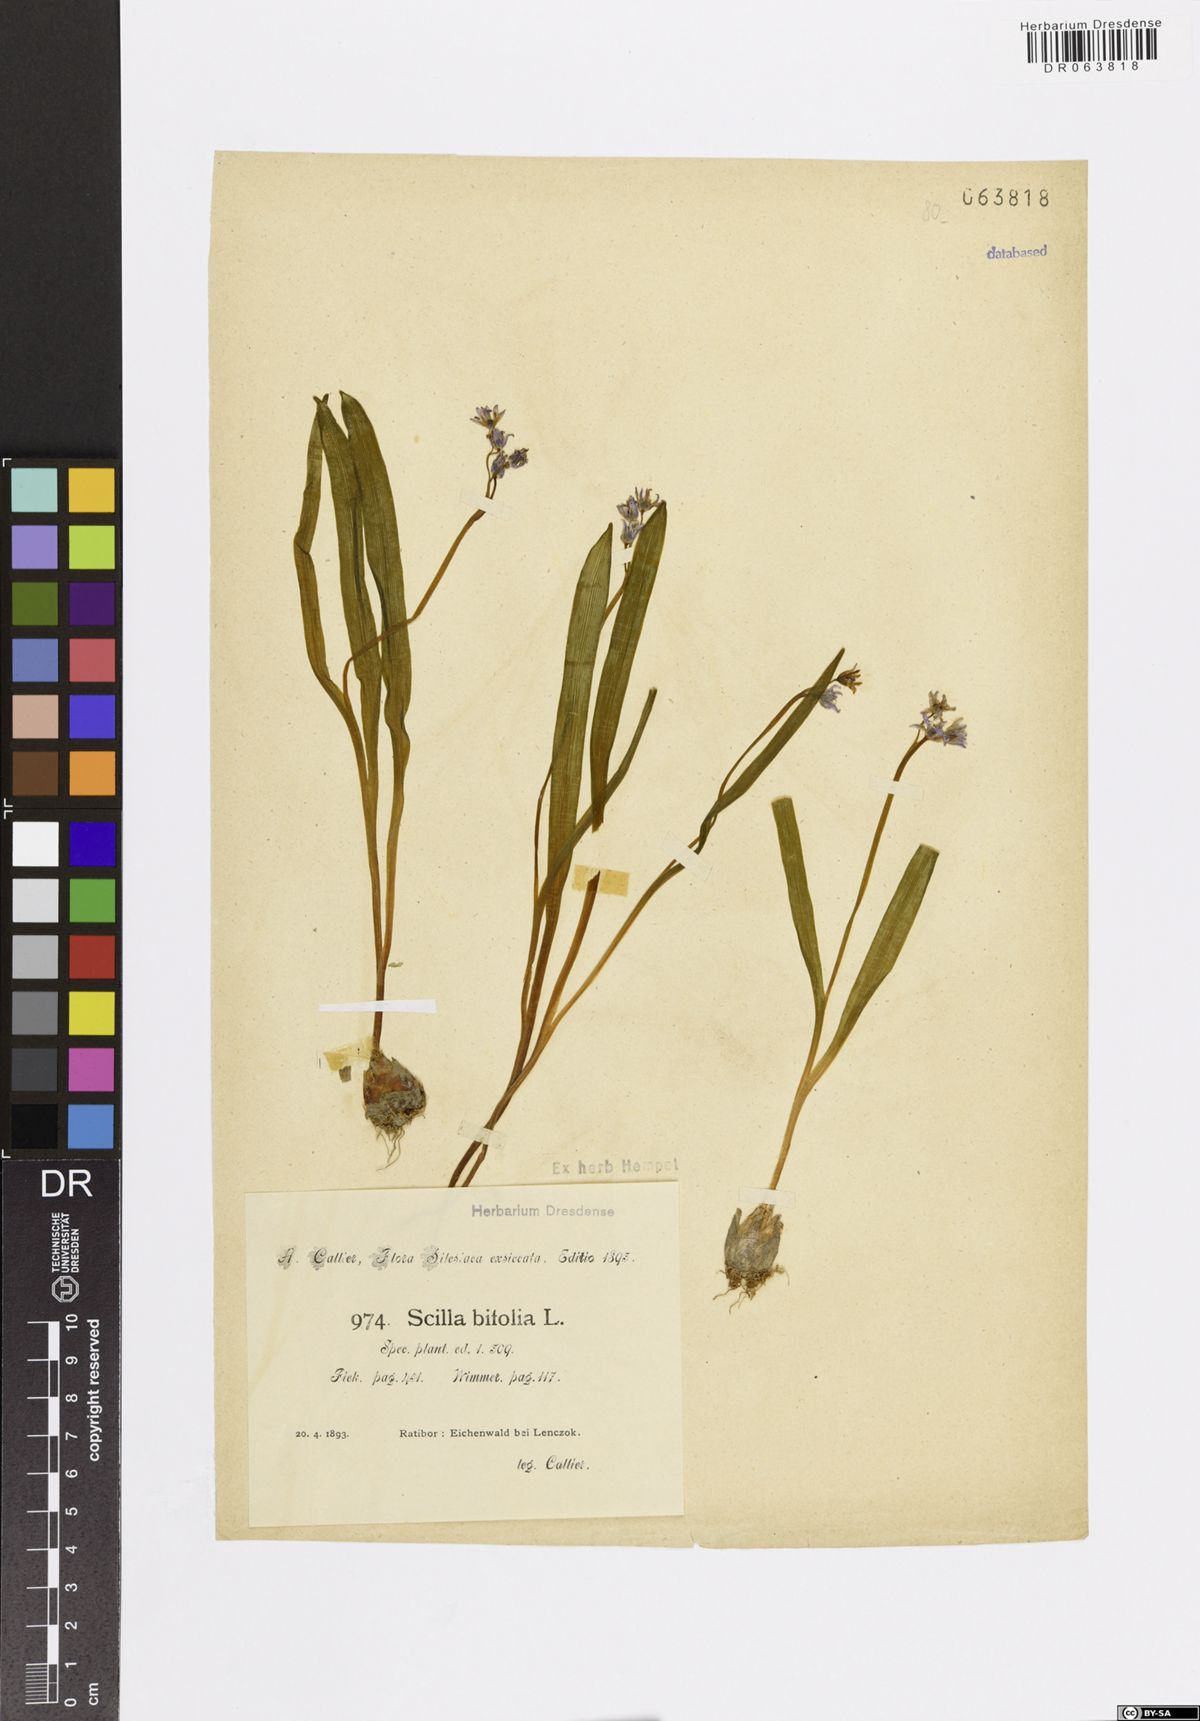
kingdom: Plantae
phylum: Tracheophyta
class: Liliopsida
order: Asparagales
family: Asparagaceae
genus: Scilla
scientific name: Scilla bifolia
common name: Alpine squill
